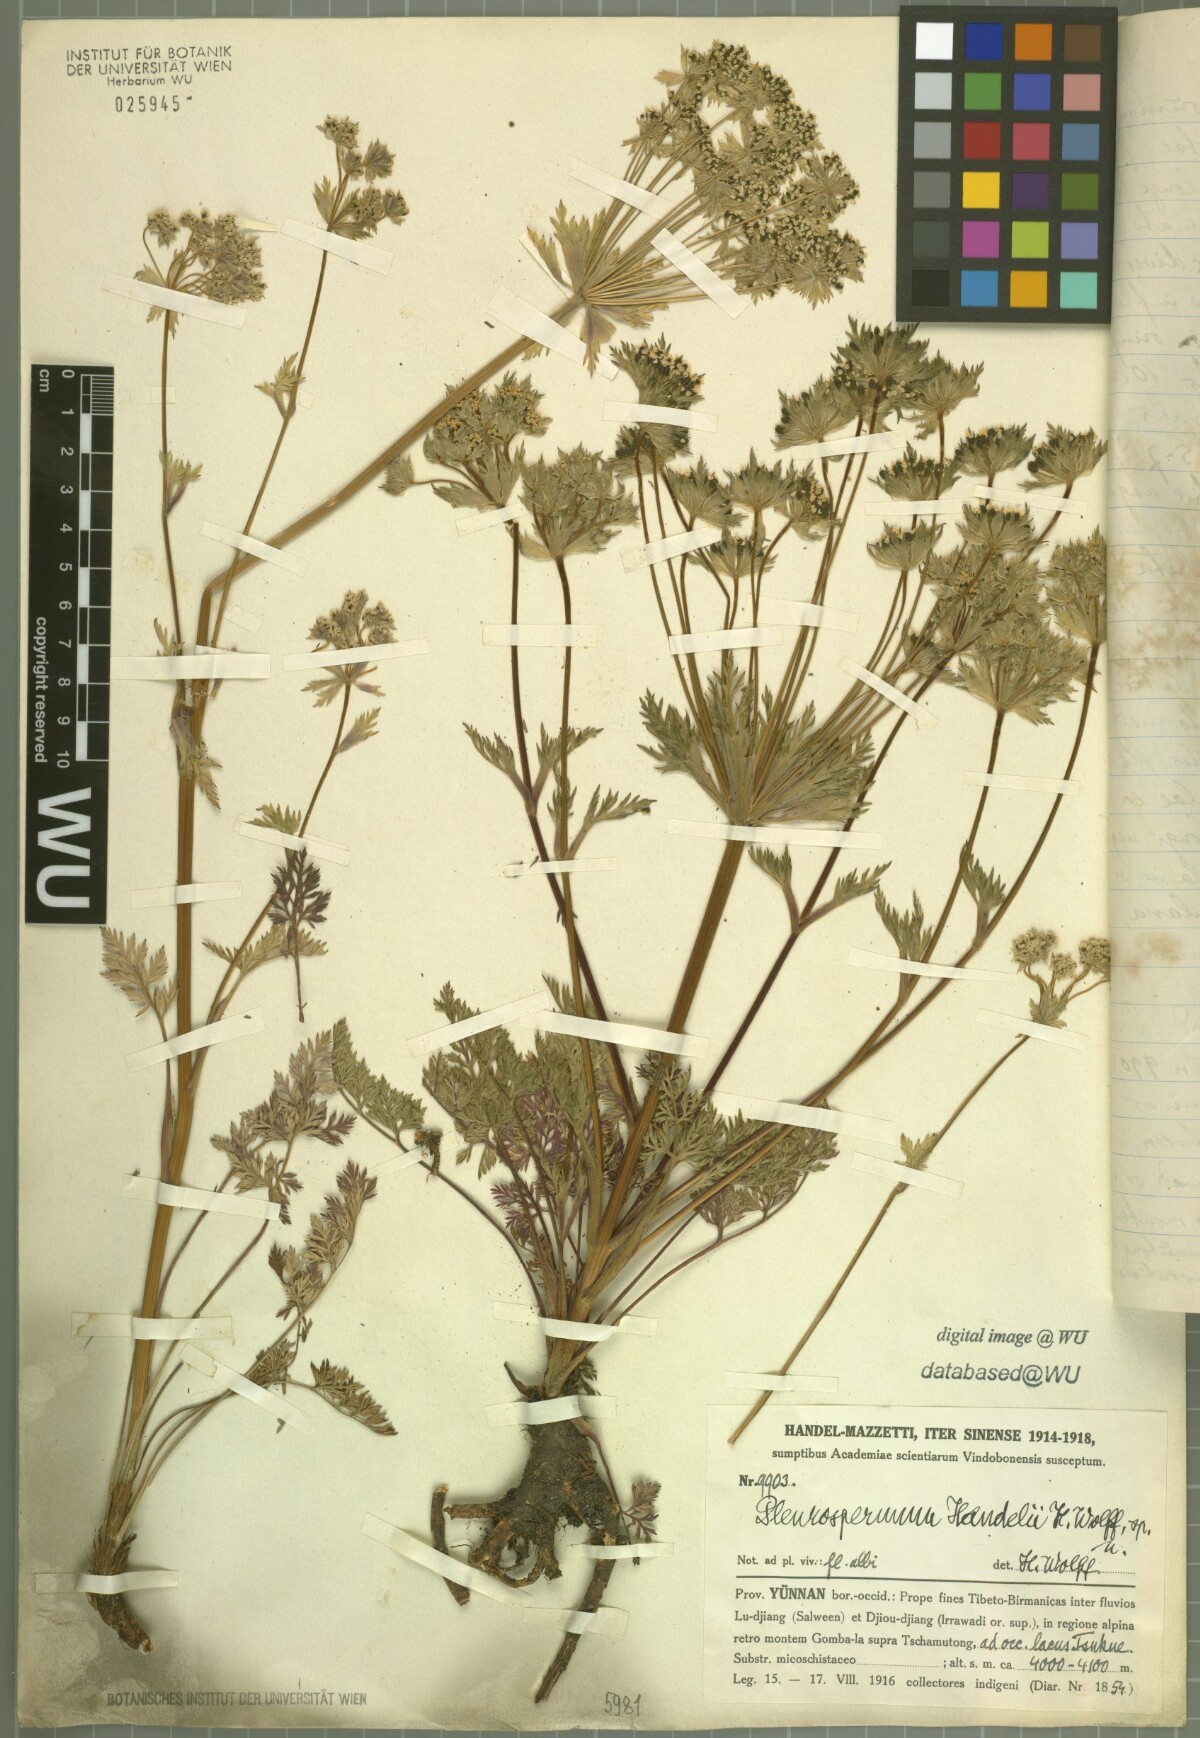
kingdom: Plantae
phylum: Tracheophyta
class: Magnoliopsida
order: Apiales
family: Apiaceae
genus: Physospermopsis
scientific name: Physospermopsis handelii
